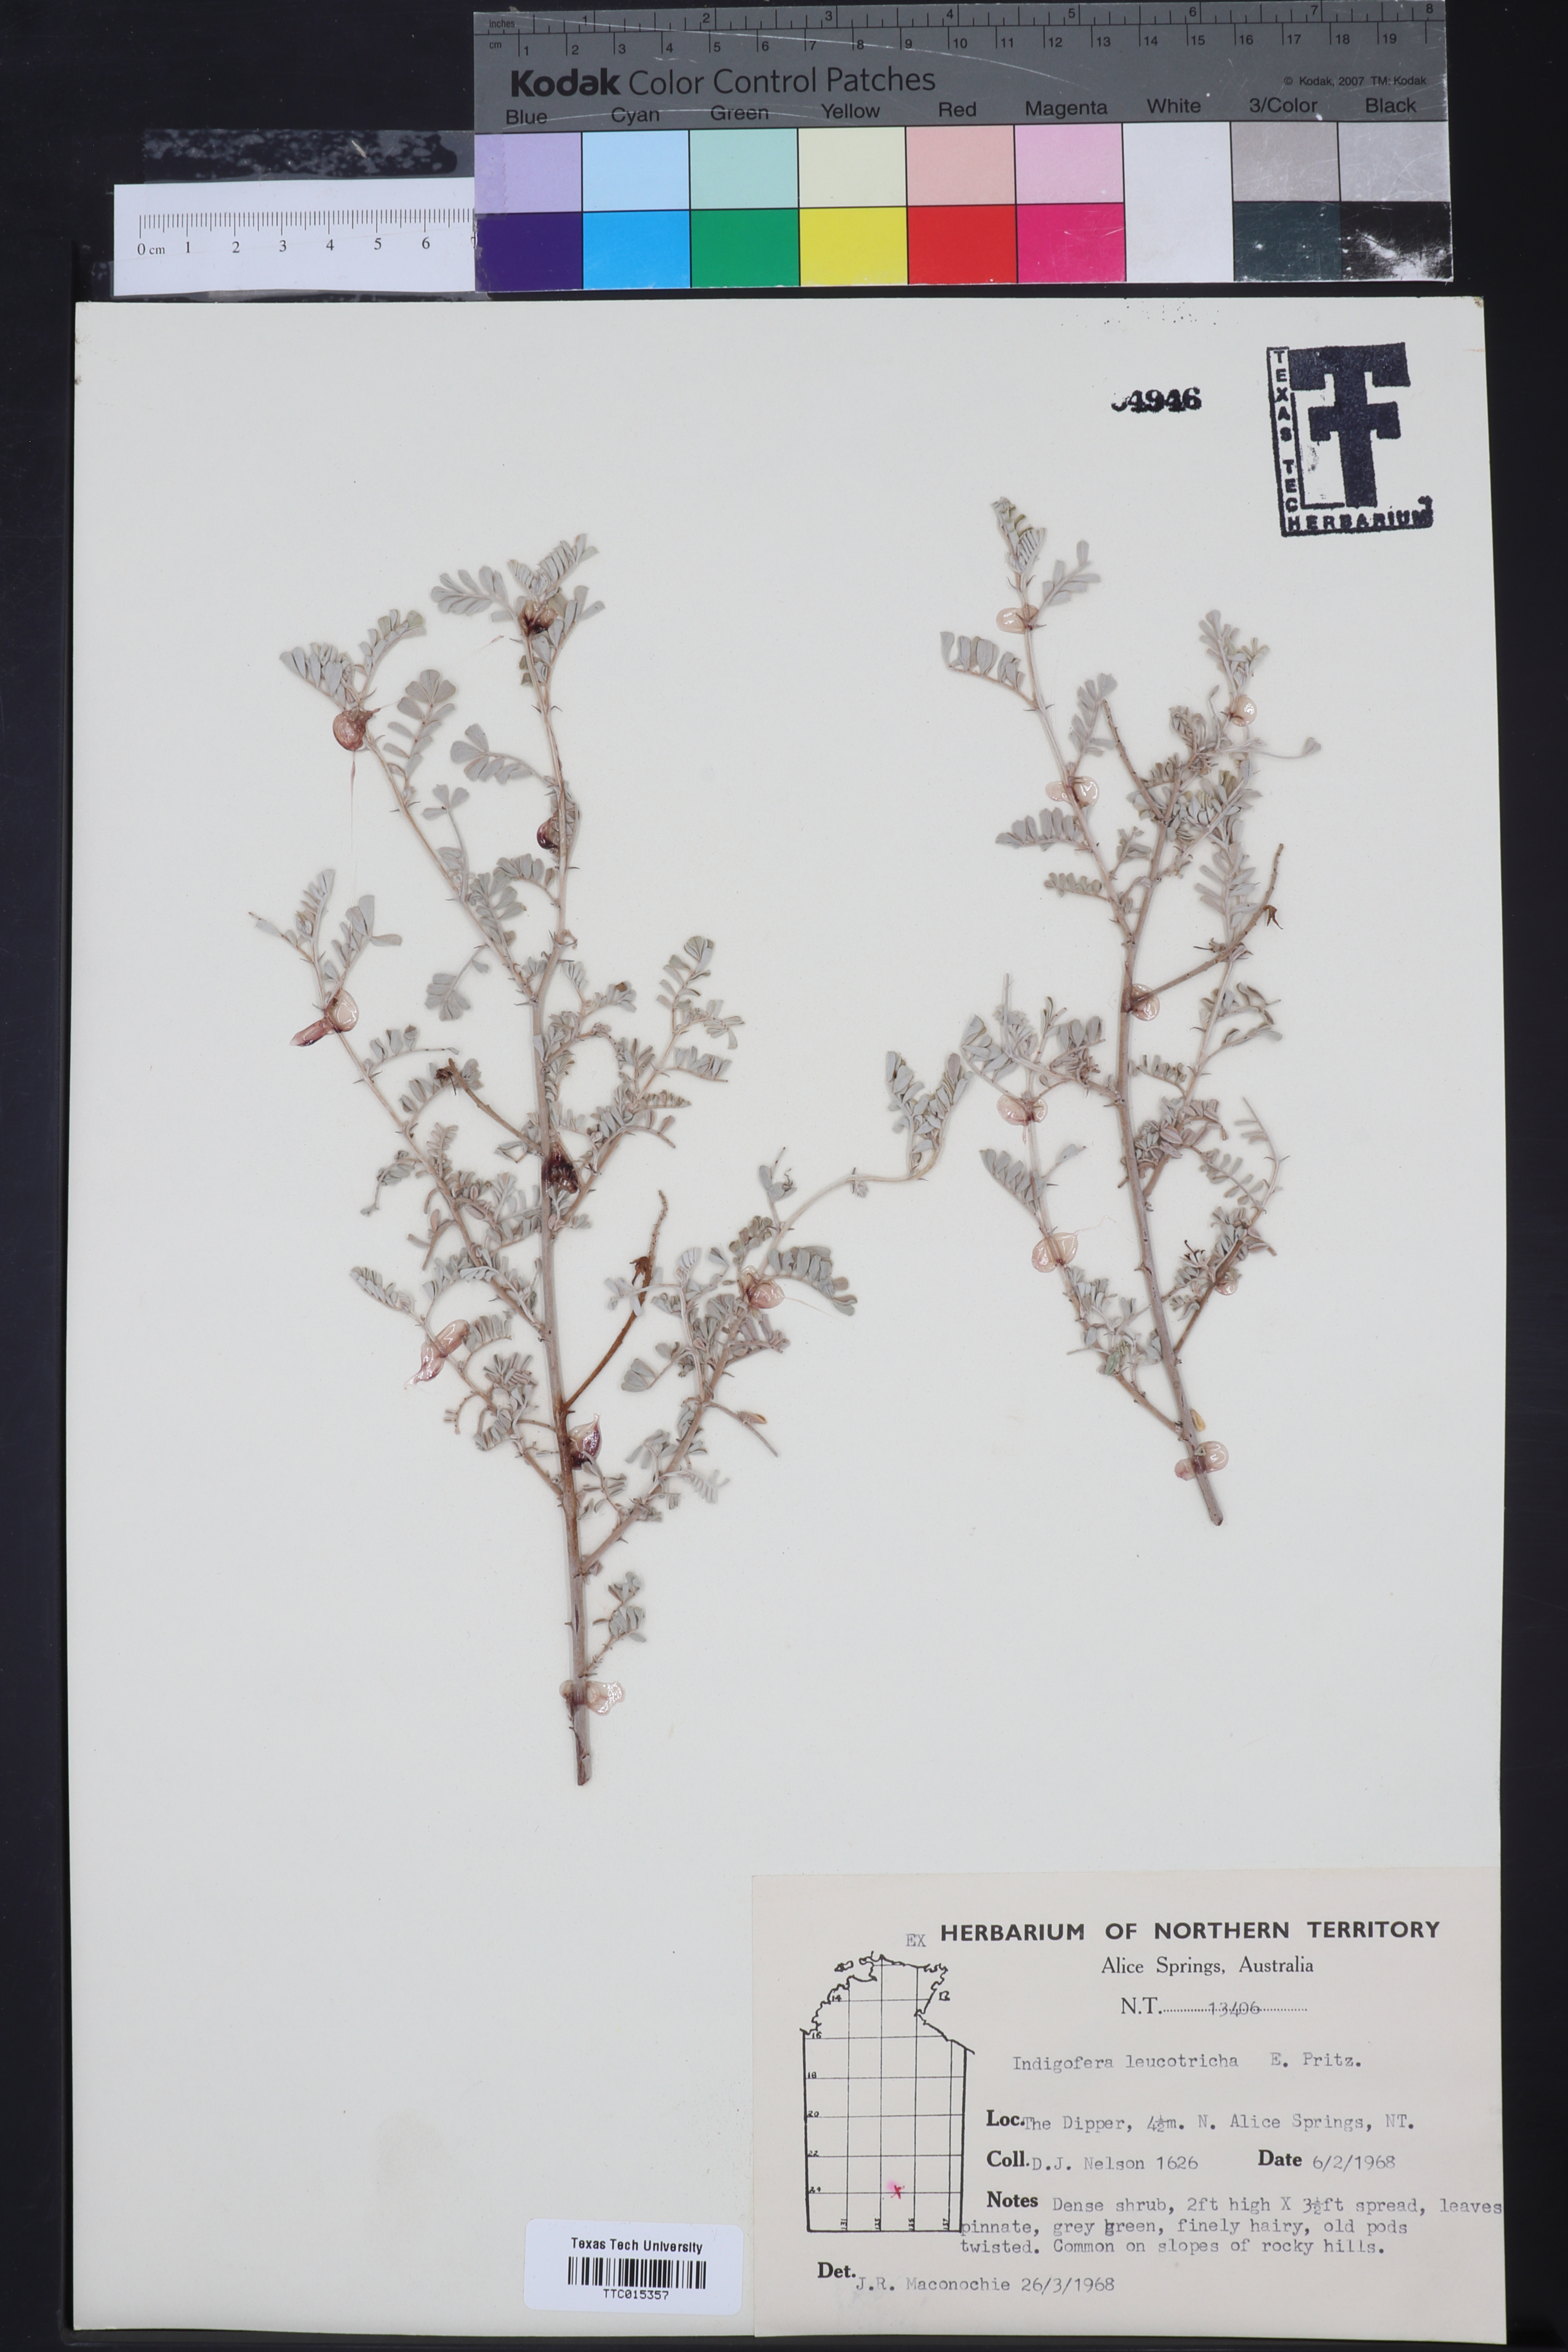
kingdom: Plantae
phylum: Tracheophyta
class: Magnoliopsida
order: Fabales
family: Fabaceae
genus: Indigofera
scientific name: Indigofera leucotricha
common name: Silver indigo
